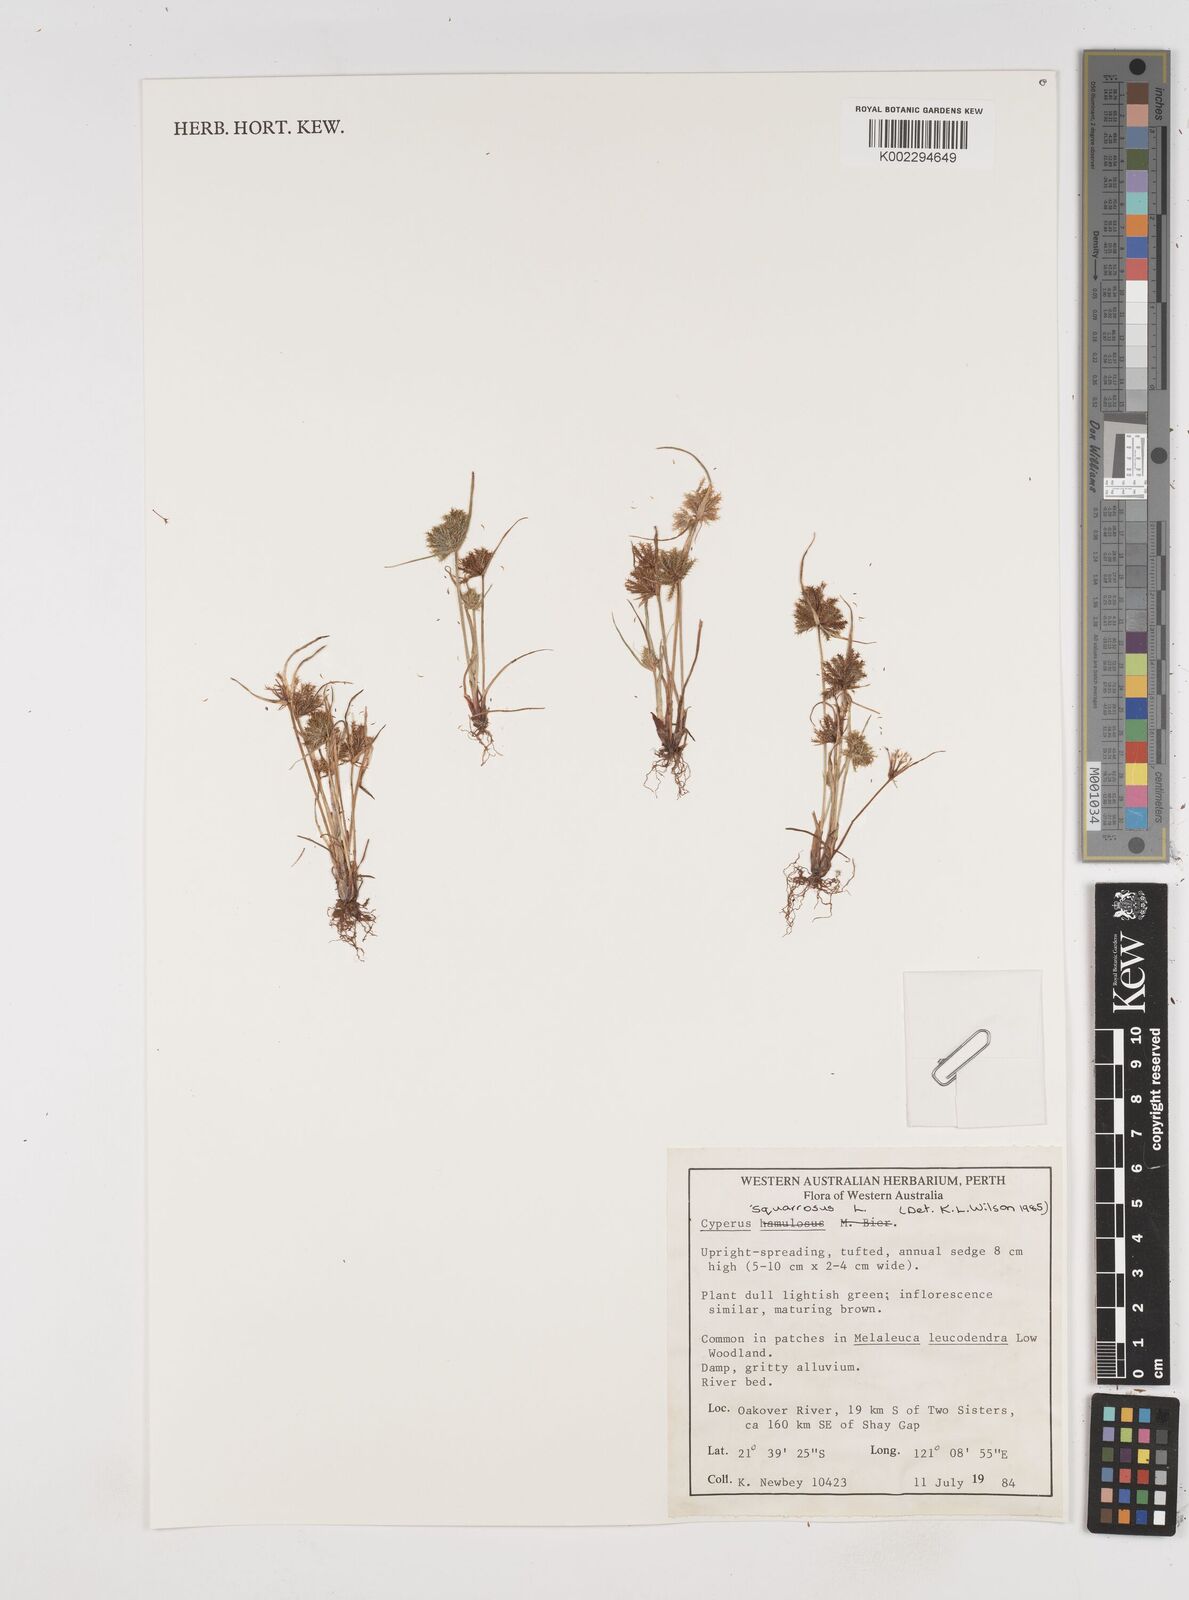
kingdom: Plantae
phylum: Tracheophyta
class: Liliopsida
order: Poales
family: Cyperaceae
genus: Cyperus
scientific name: Cyperus squarrosus
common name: Awned cyperus
